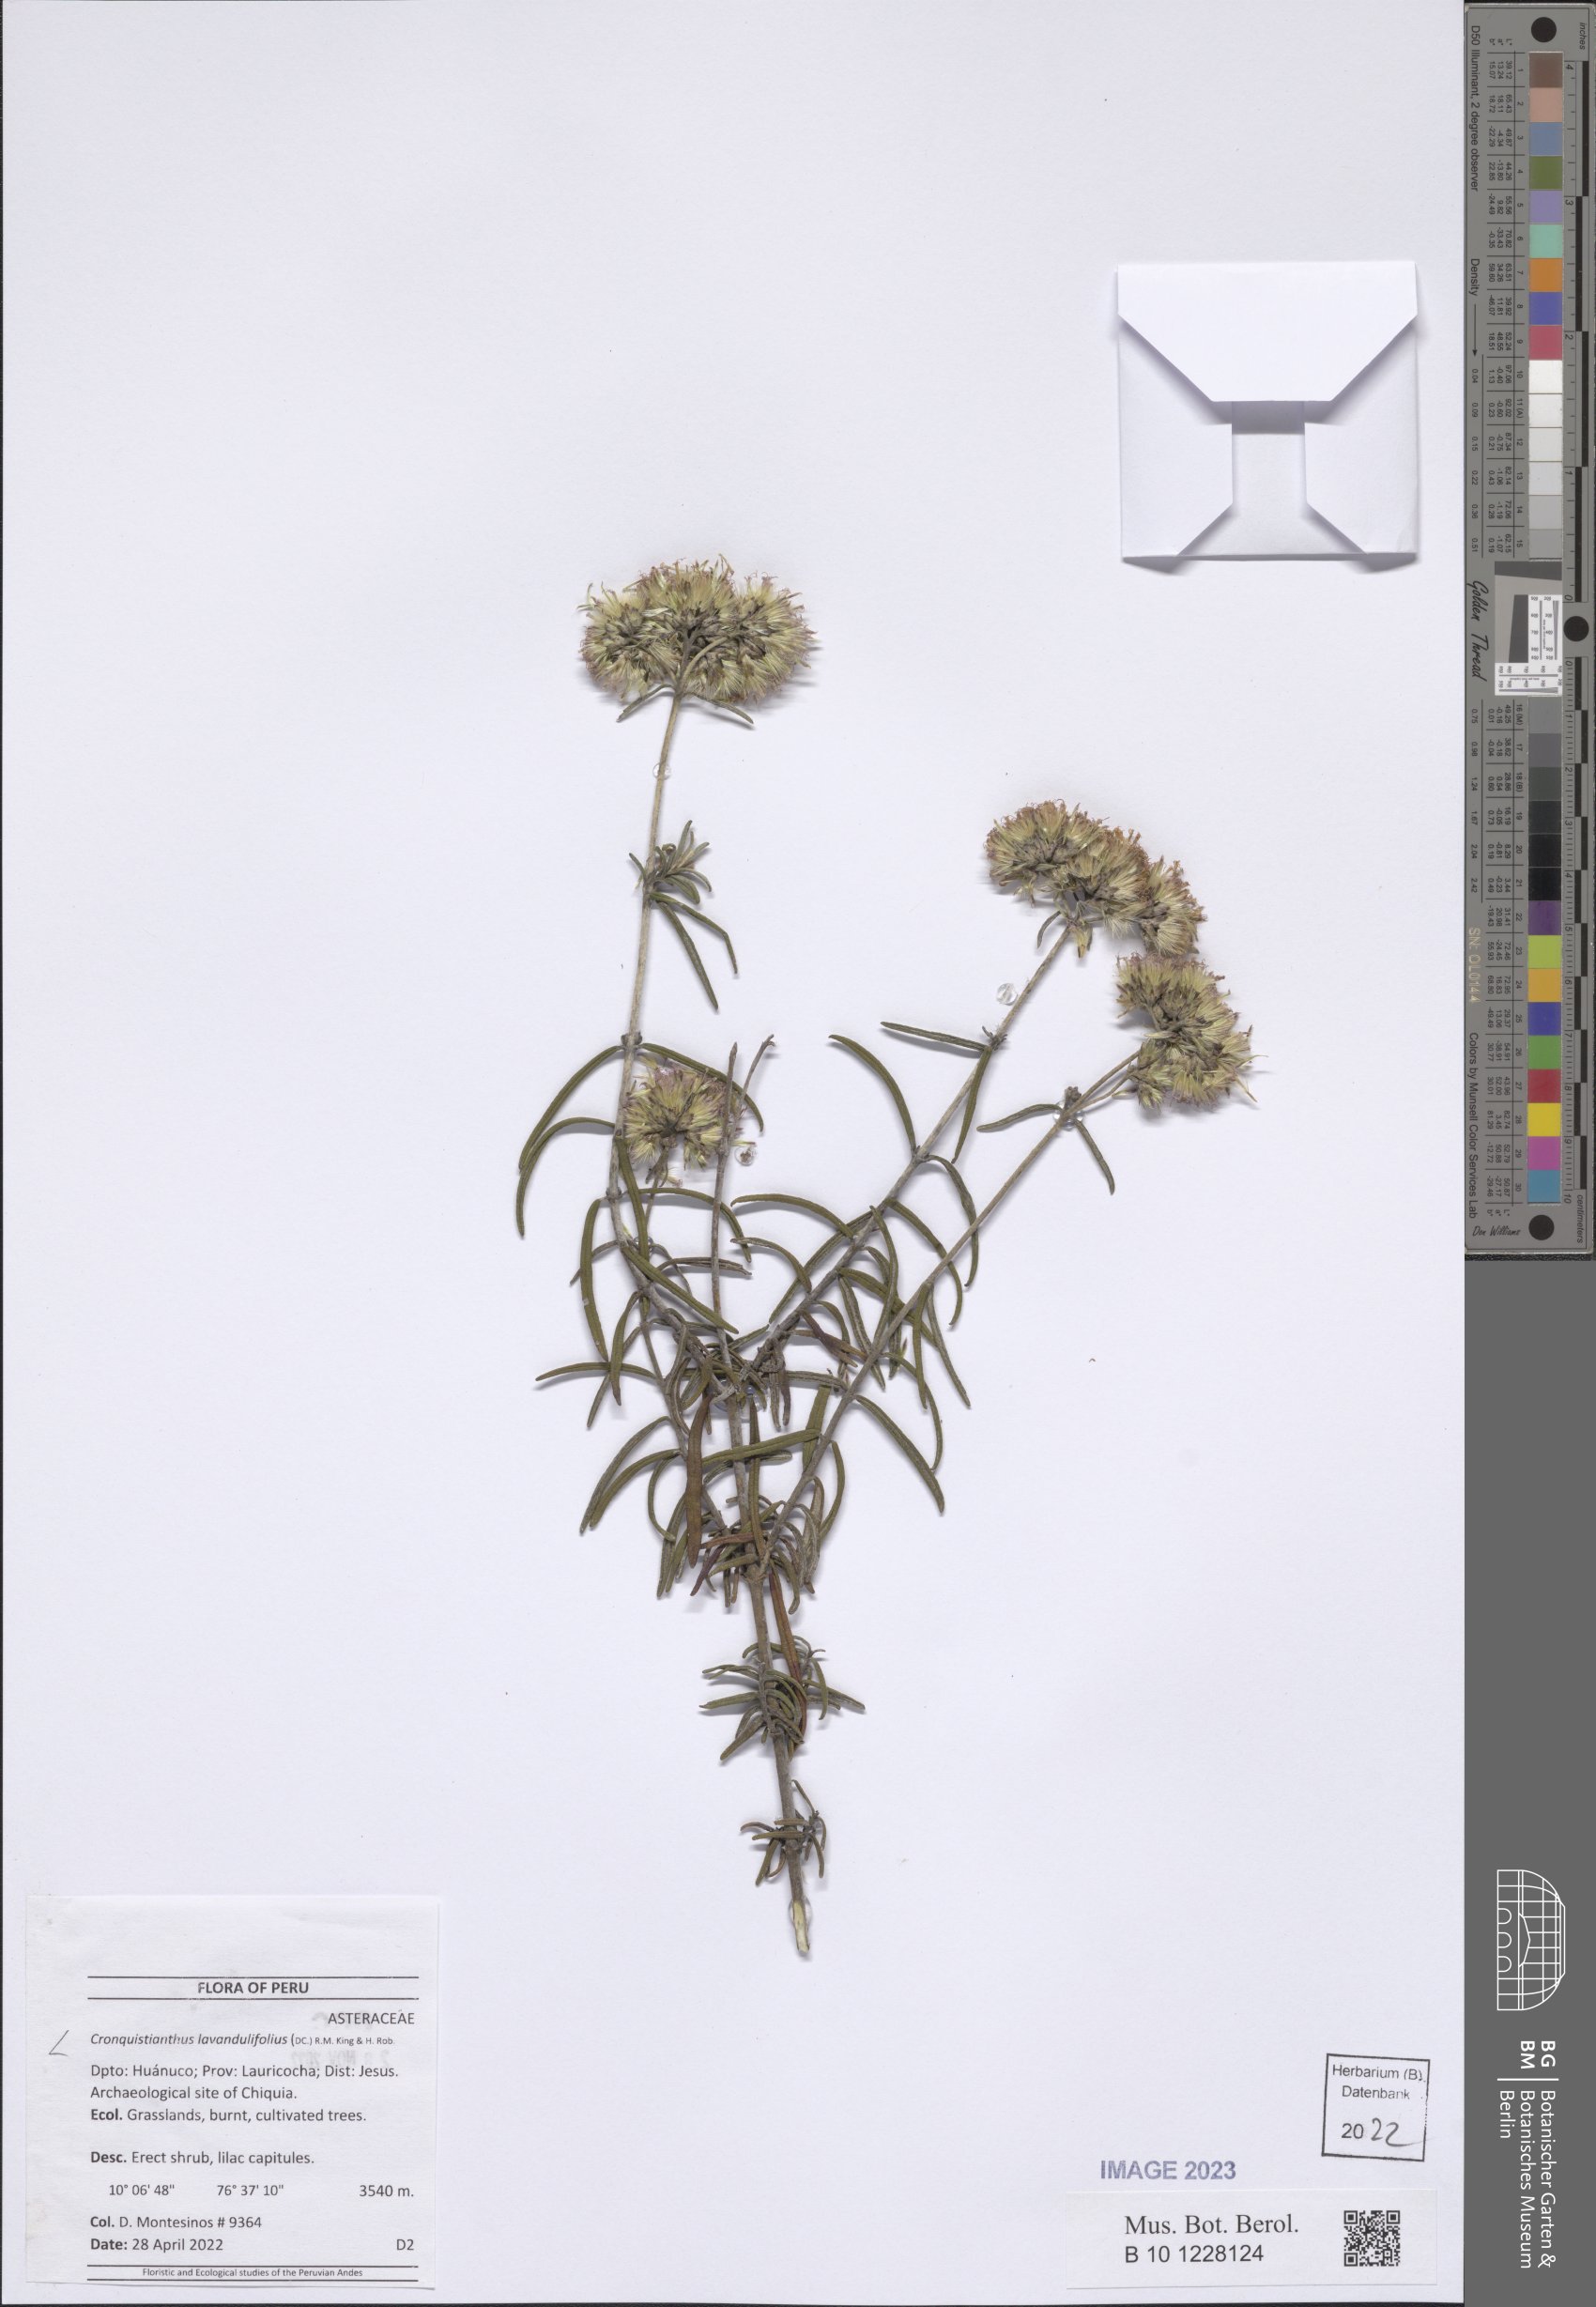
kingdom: Plantae
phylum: Tracheophyta
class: Magnoliopsida
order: Asterales
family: Asteraceae
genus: Cronquistianthus
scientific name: Cronquistianthus lavandulifolius
